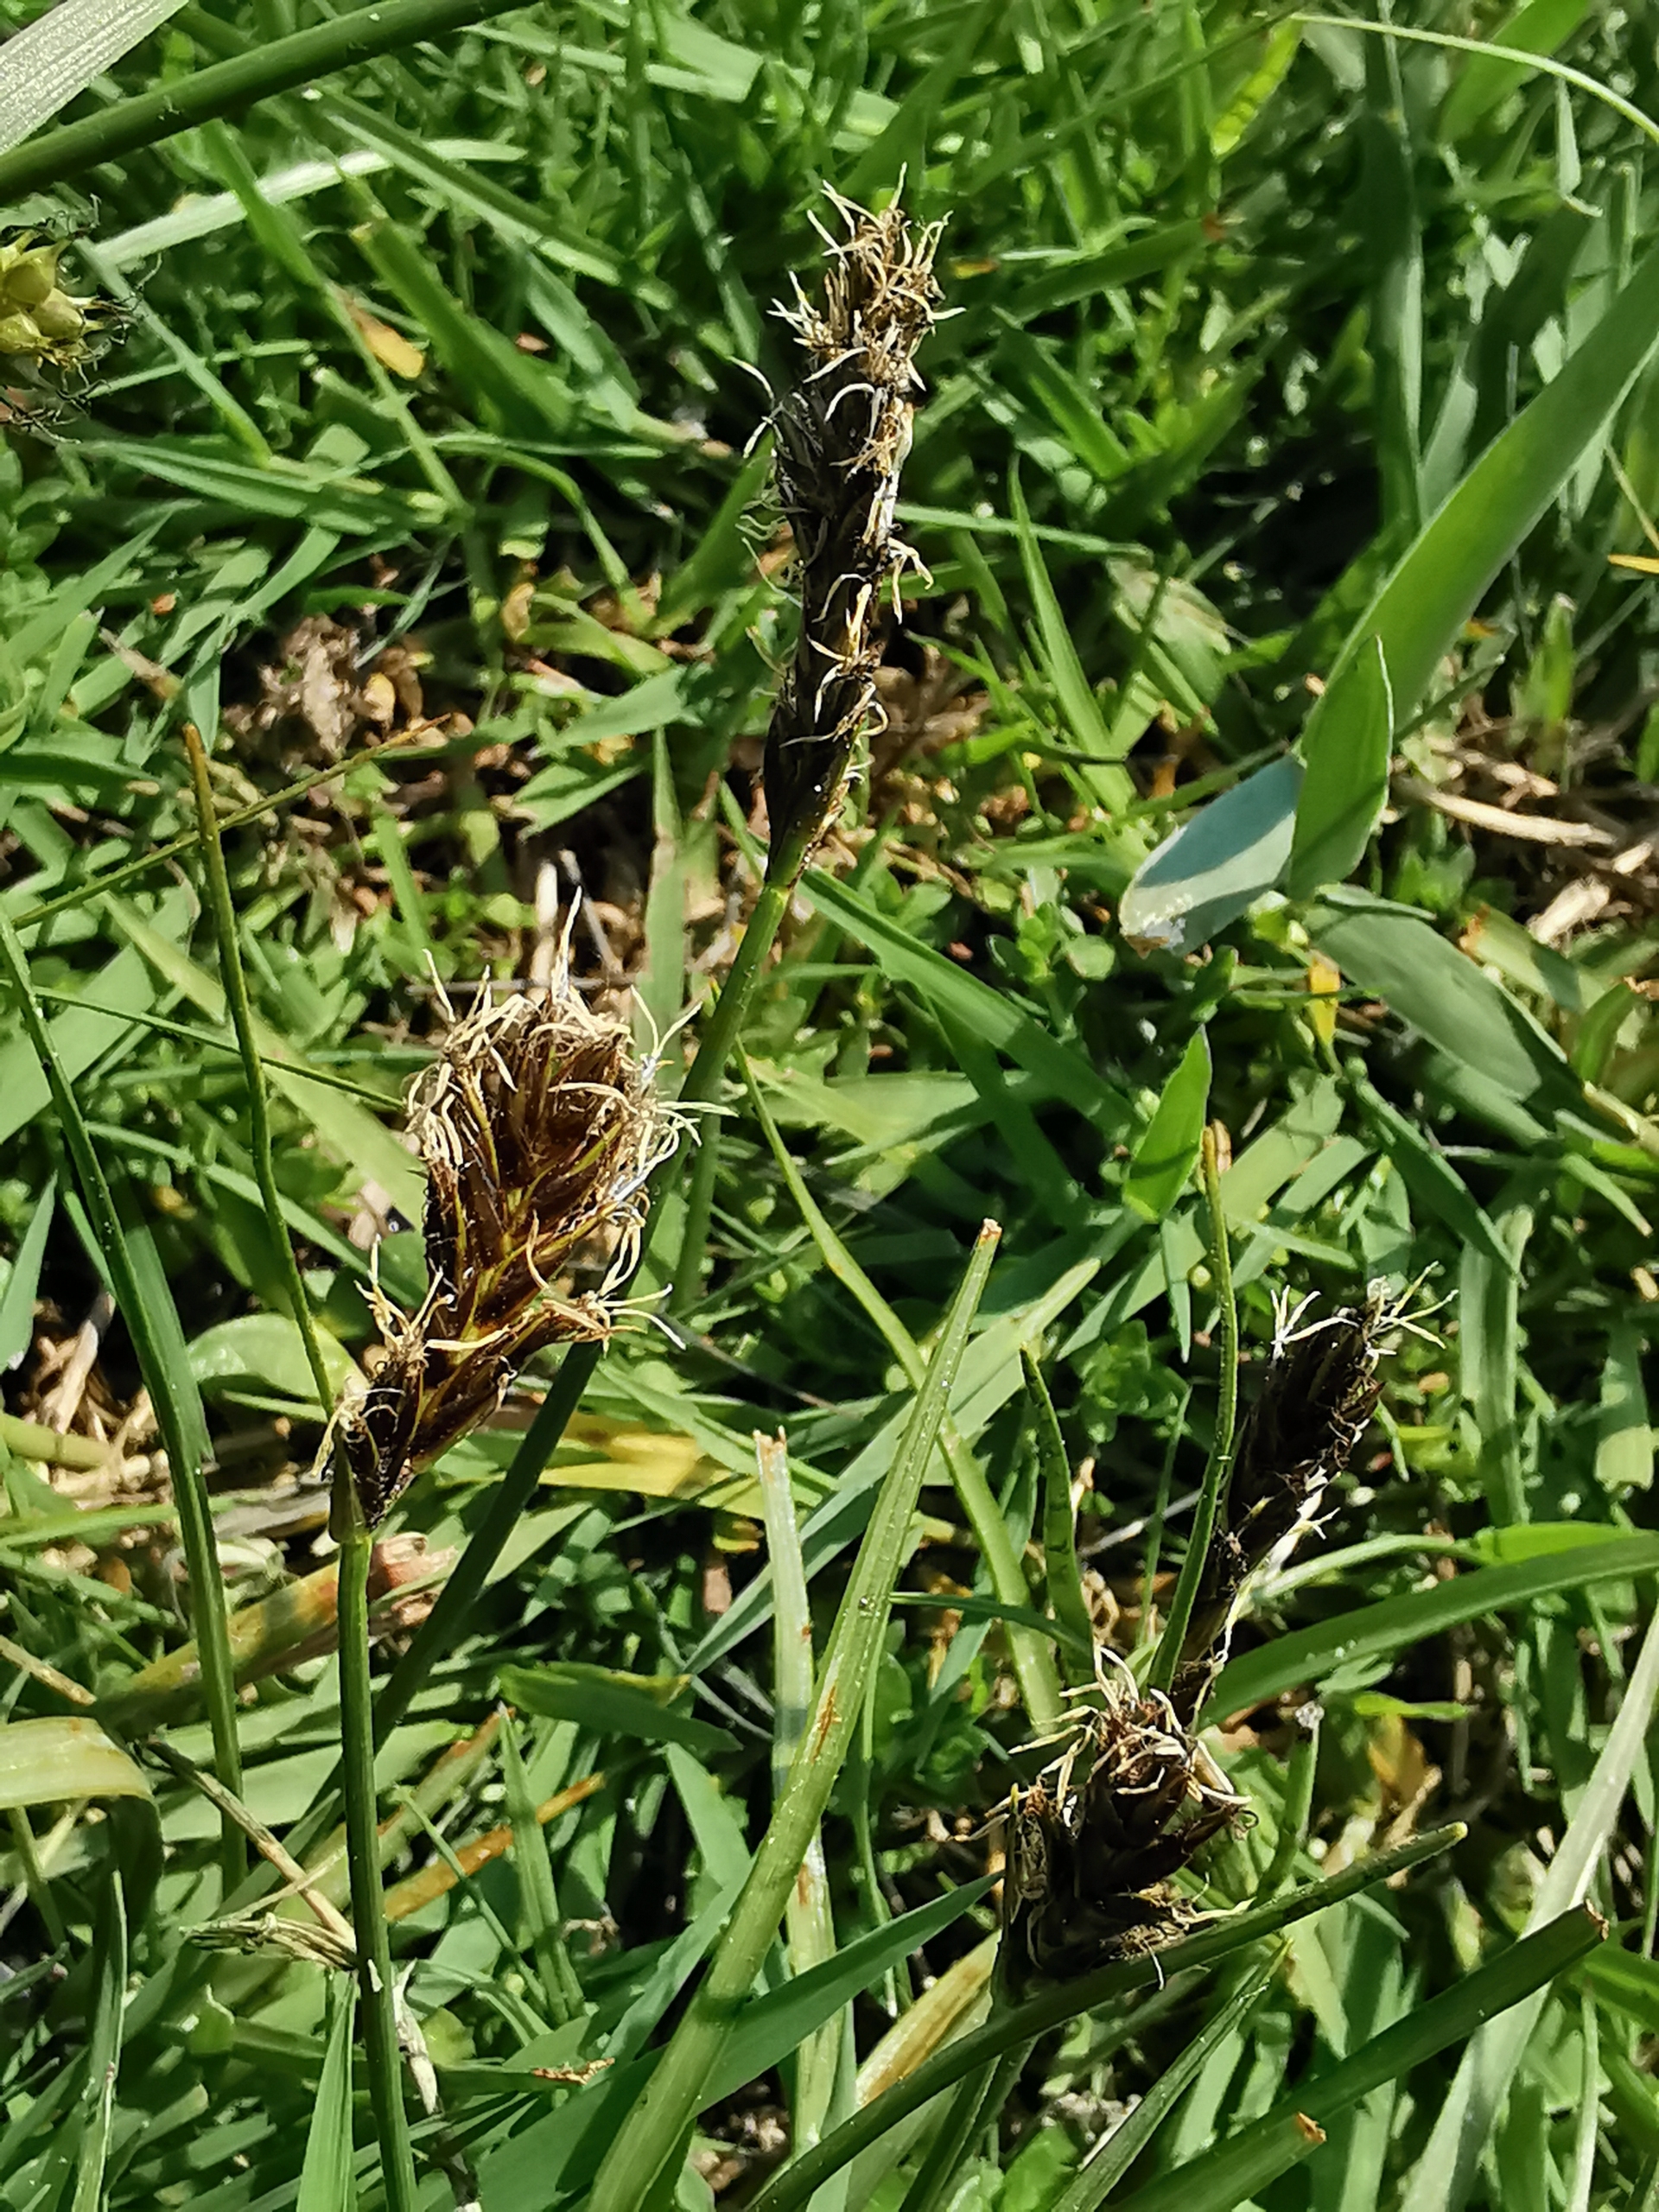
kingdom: Plantae
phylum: Tracheophyta
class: Liliopsida
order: Poales
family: Cyperaceae
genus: Blysmus
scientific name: Blysmus compressus
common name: Fladtrykt kogleaks
